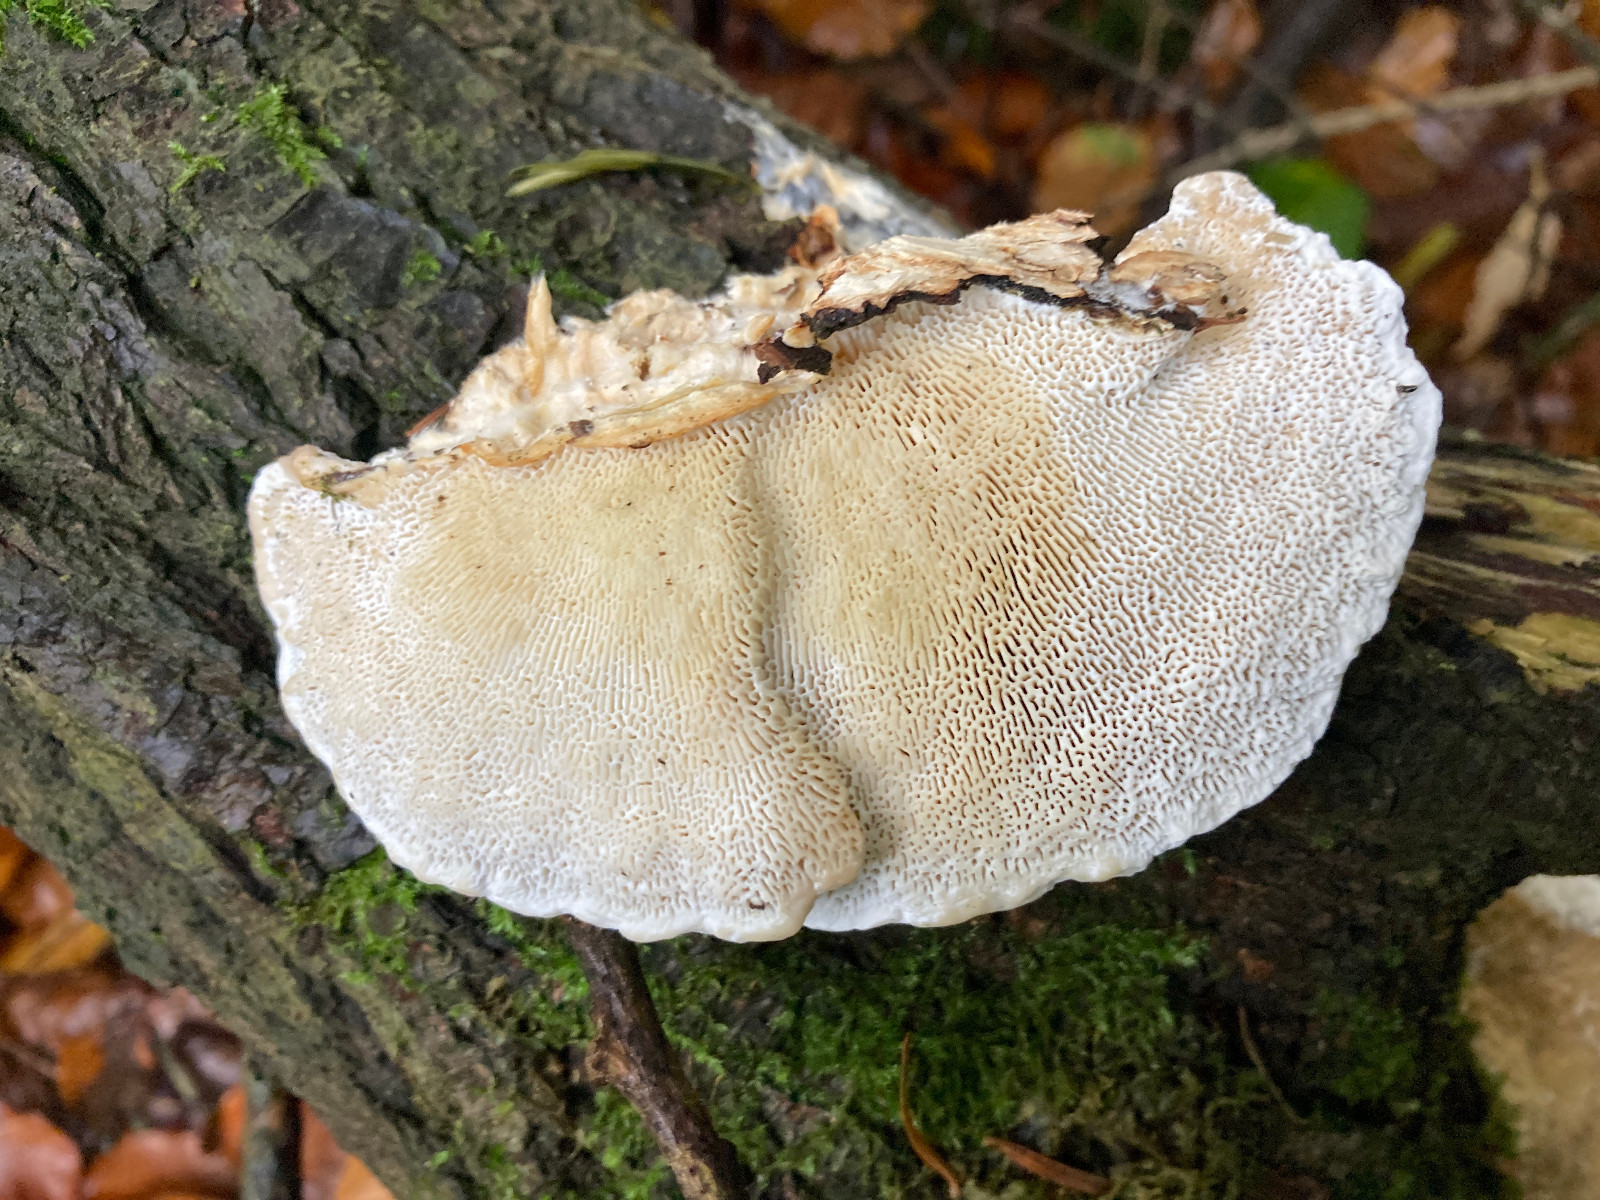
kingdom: Fungi
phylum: Basidiomycota
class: Agaricomycetes
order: Polyporales
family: Polyporaceae
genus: Daedaleopsis
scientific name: Daedaleopsis confragosa
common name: rødmende læderporesvamp
